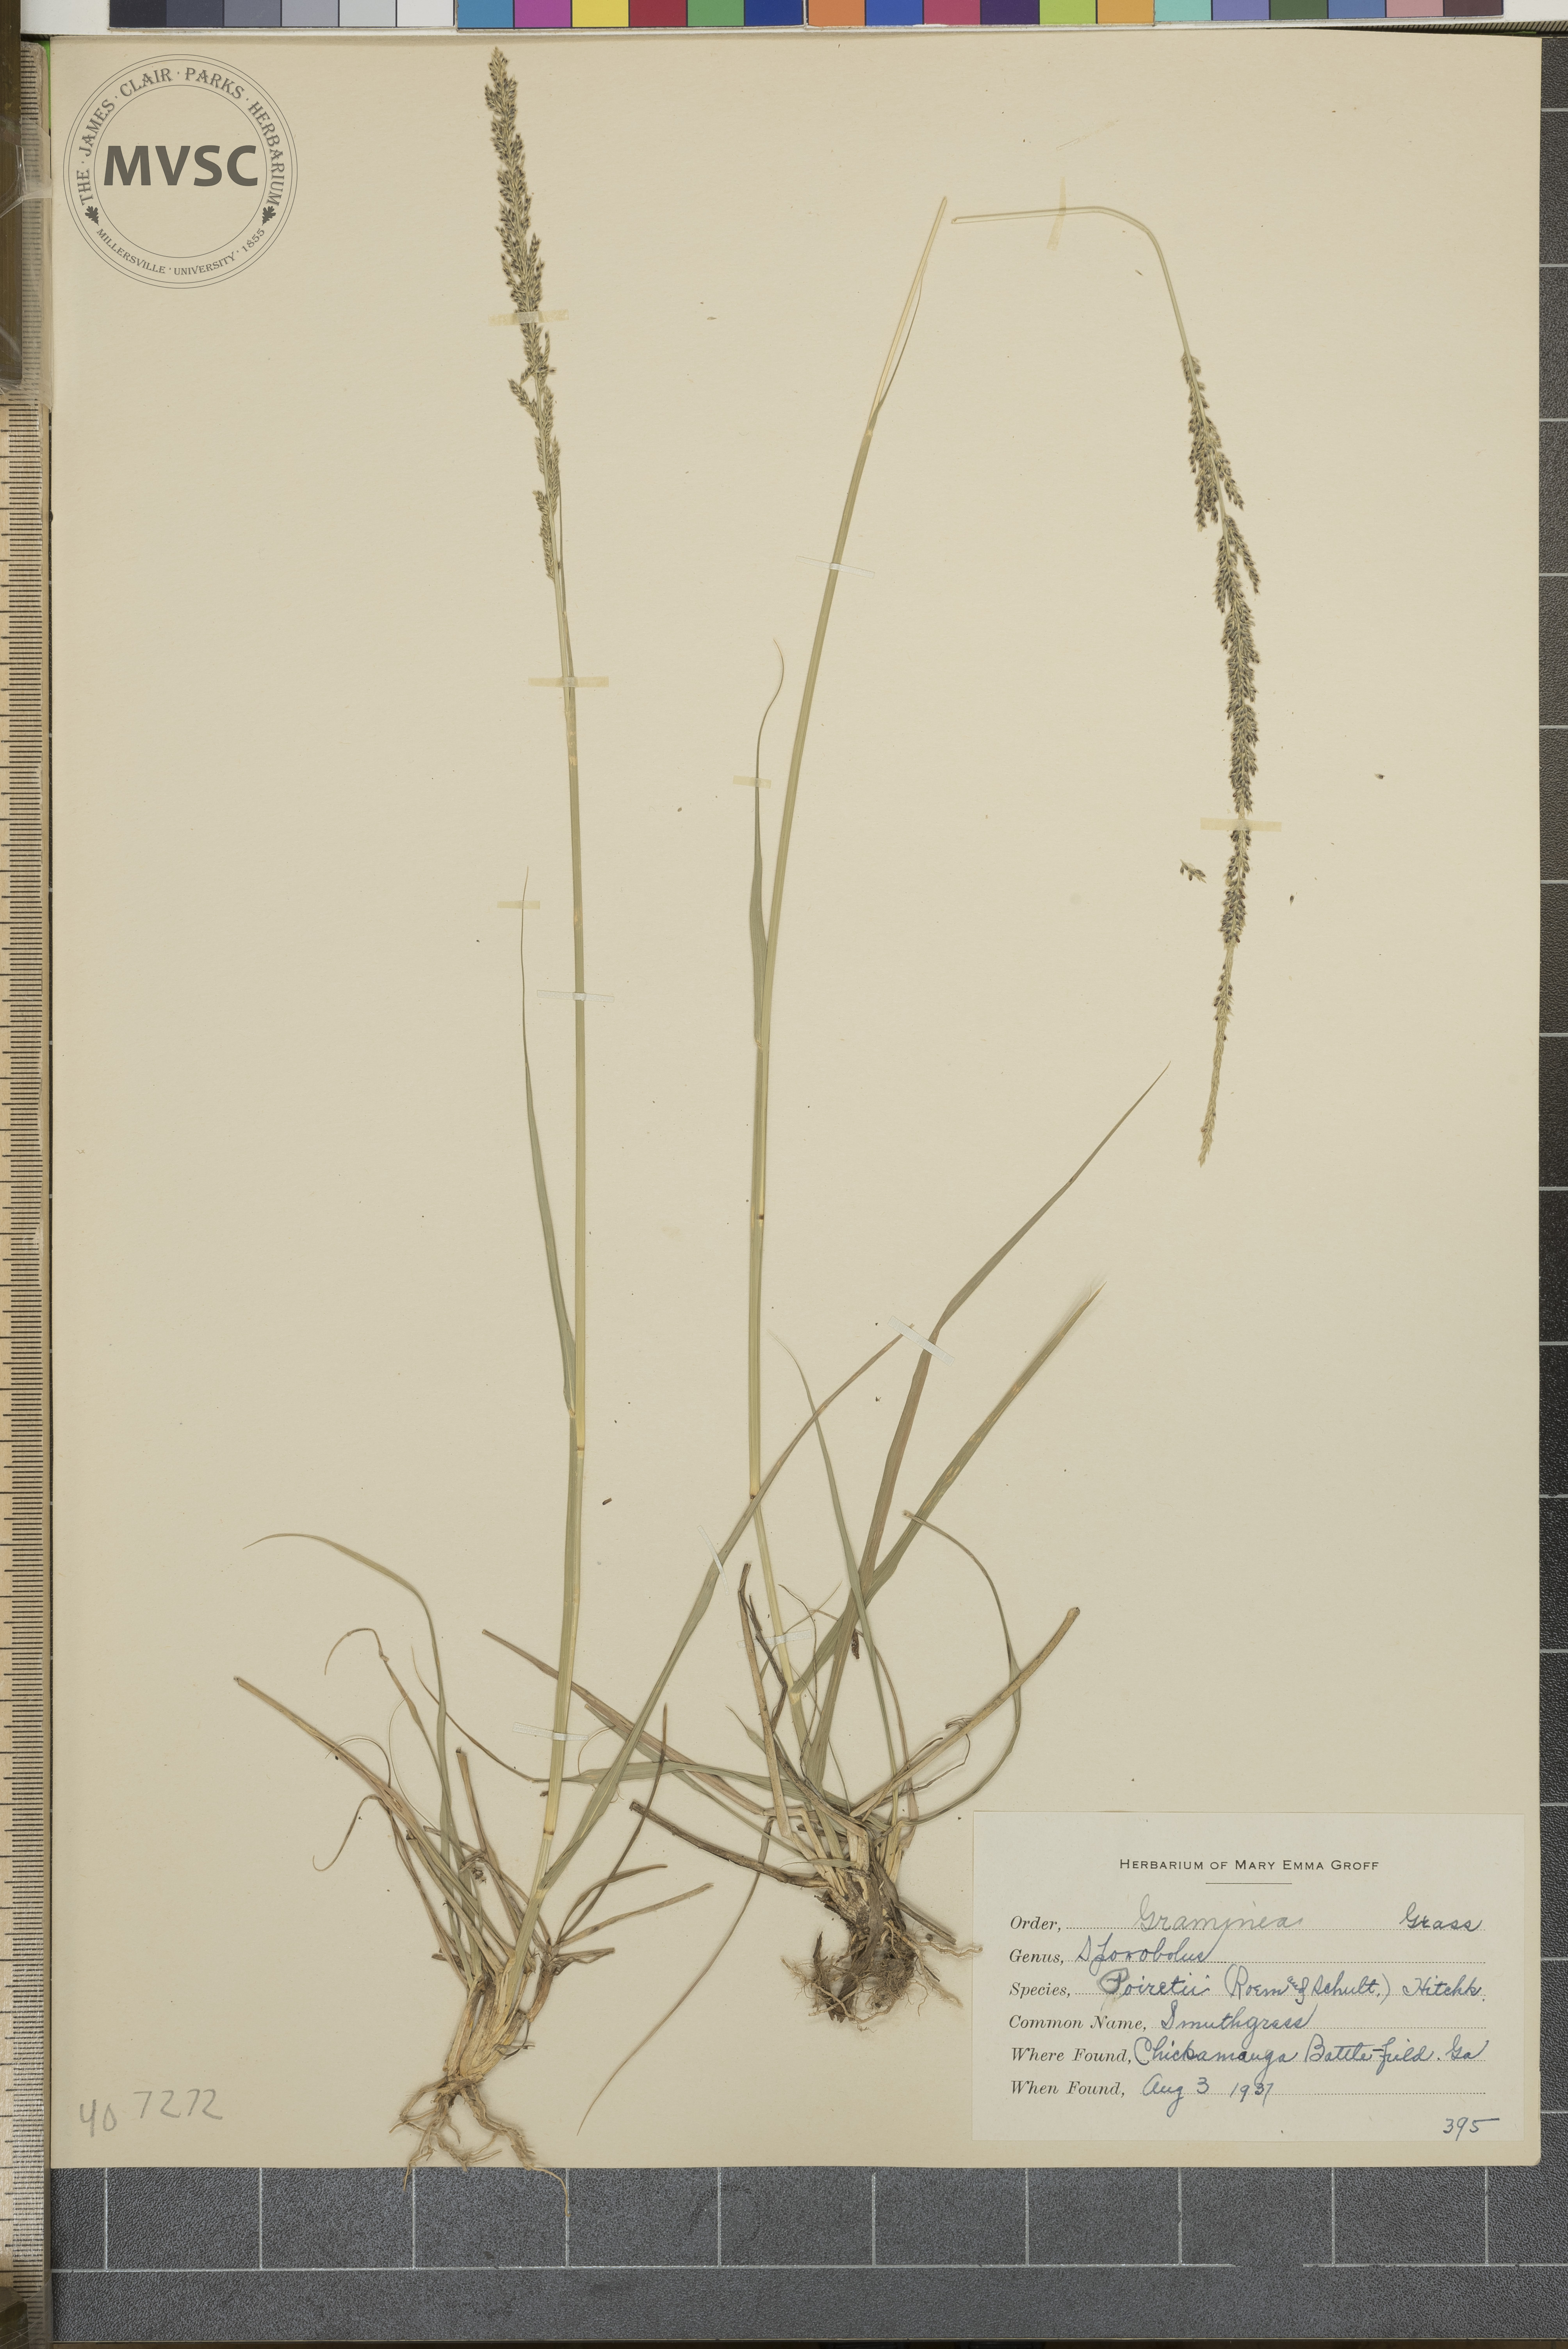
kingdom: Plantae
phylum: Tracheophyta
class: Liliopsida
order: Poales
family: Poaceae
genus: Sporobolus
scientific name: Sporobolus indicus
